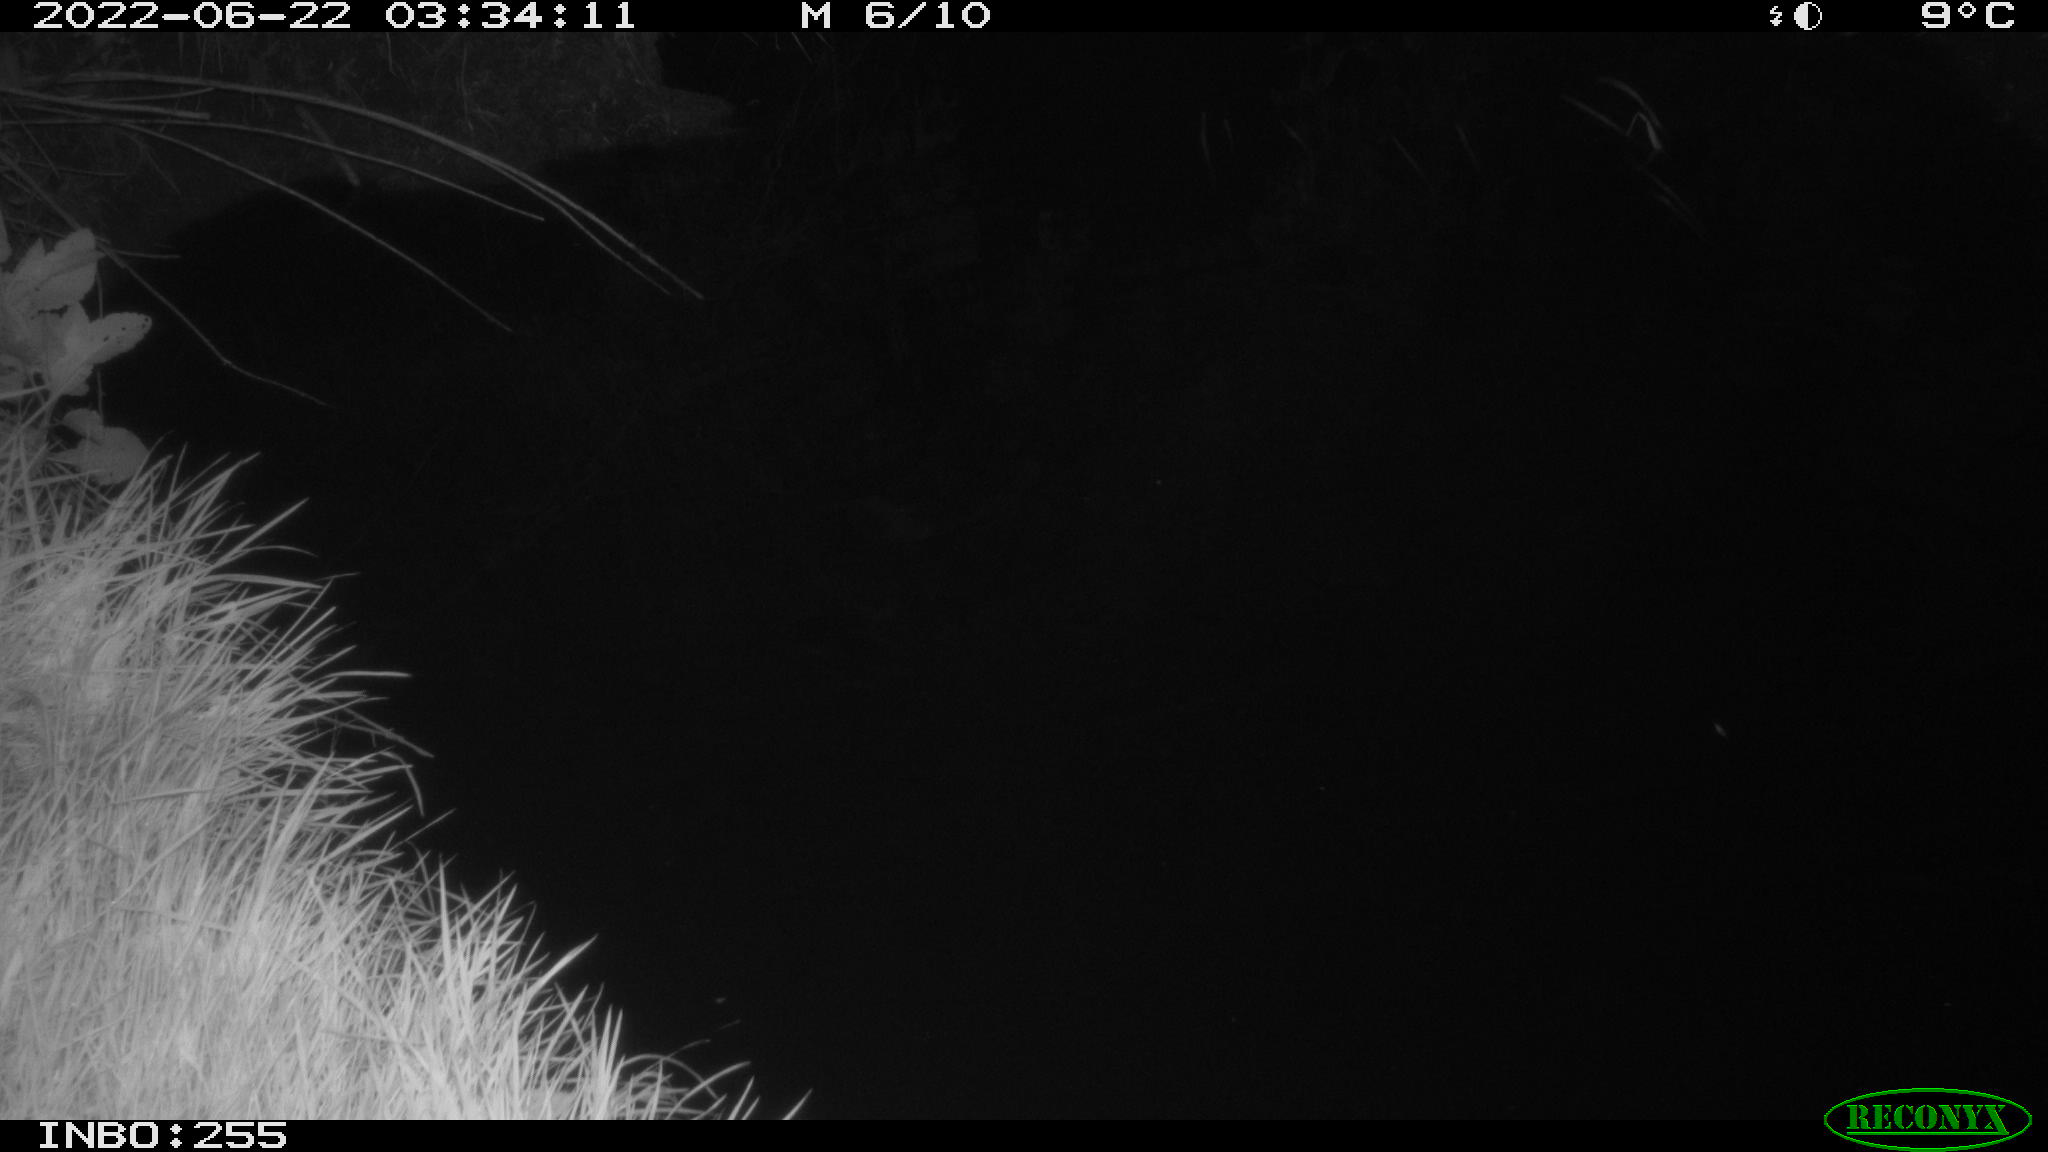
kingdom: Animalia
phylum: Chordata
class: Aves
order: Anseriformes
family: Anatidae
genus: Anas
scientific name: Anas platyrhynchos
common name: Mallard
